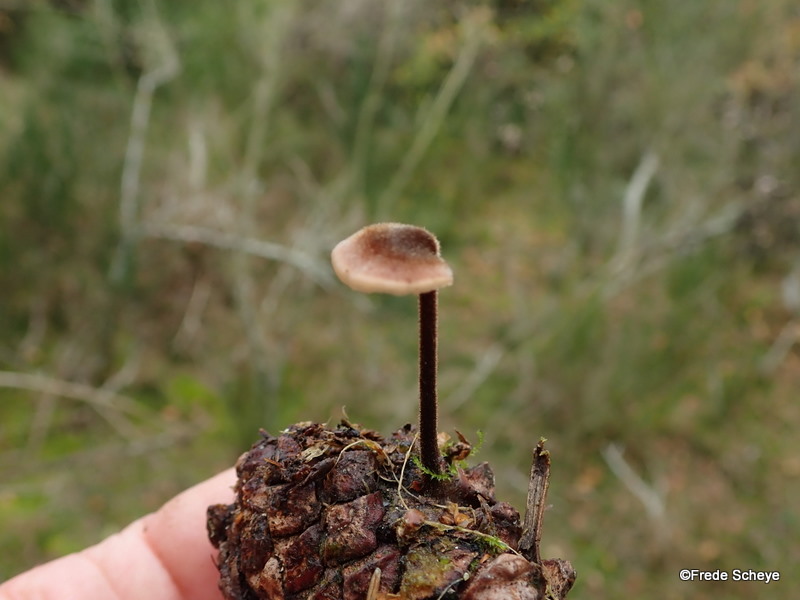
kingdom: Fungi
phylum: Basidiomycota
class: Agaricomycetes
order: Russulales
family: Auriscalpiaceae
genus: Auriscalpium
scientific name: Auriscalpium vulgare
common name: koglepigsvamp
